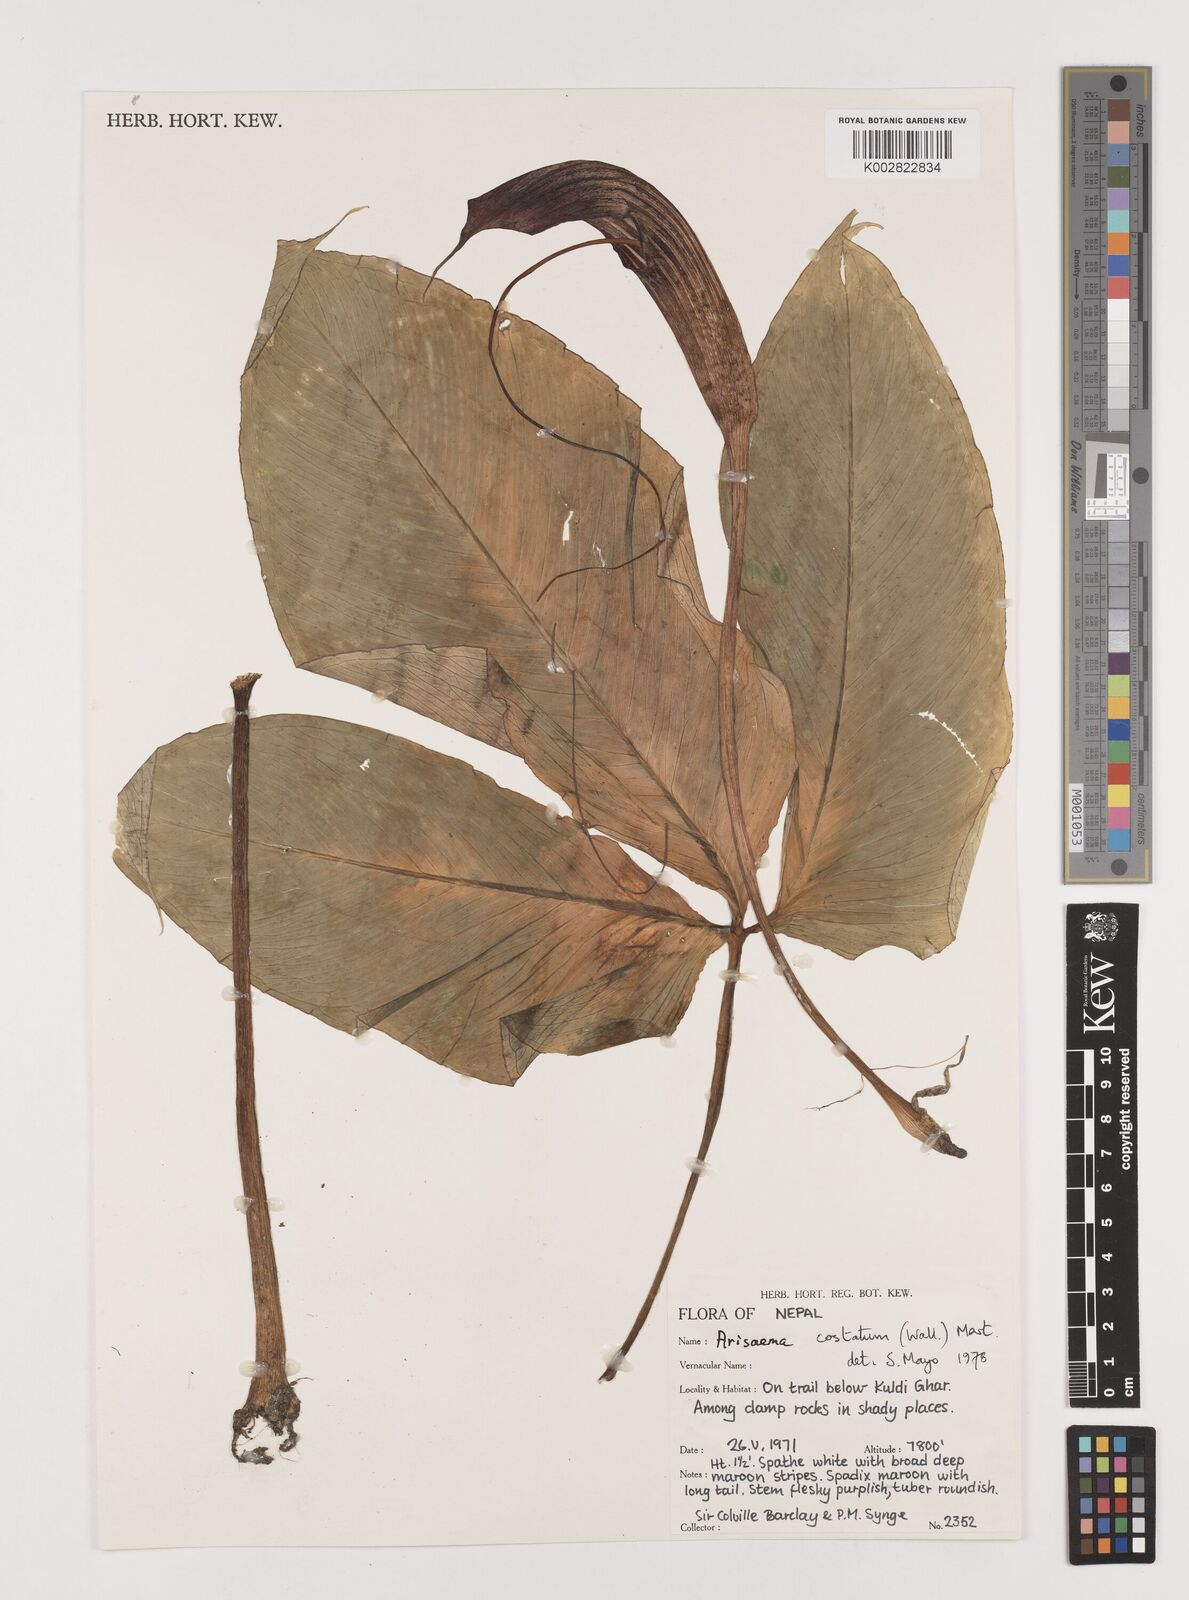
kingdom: Plantae
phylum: Tracheophyta
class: Liliopsida
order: Alismatales
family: Araceae
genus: Arisaema
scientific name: Arisaema costatum
